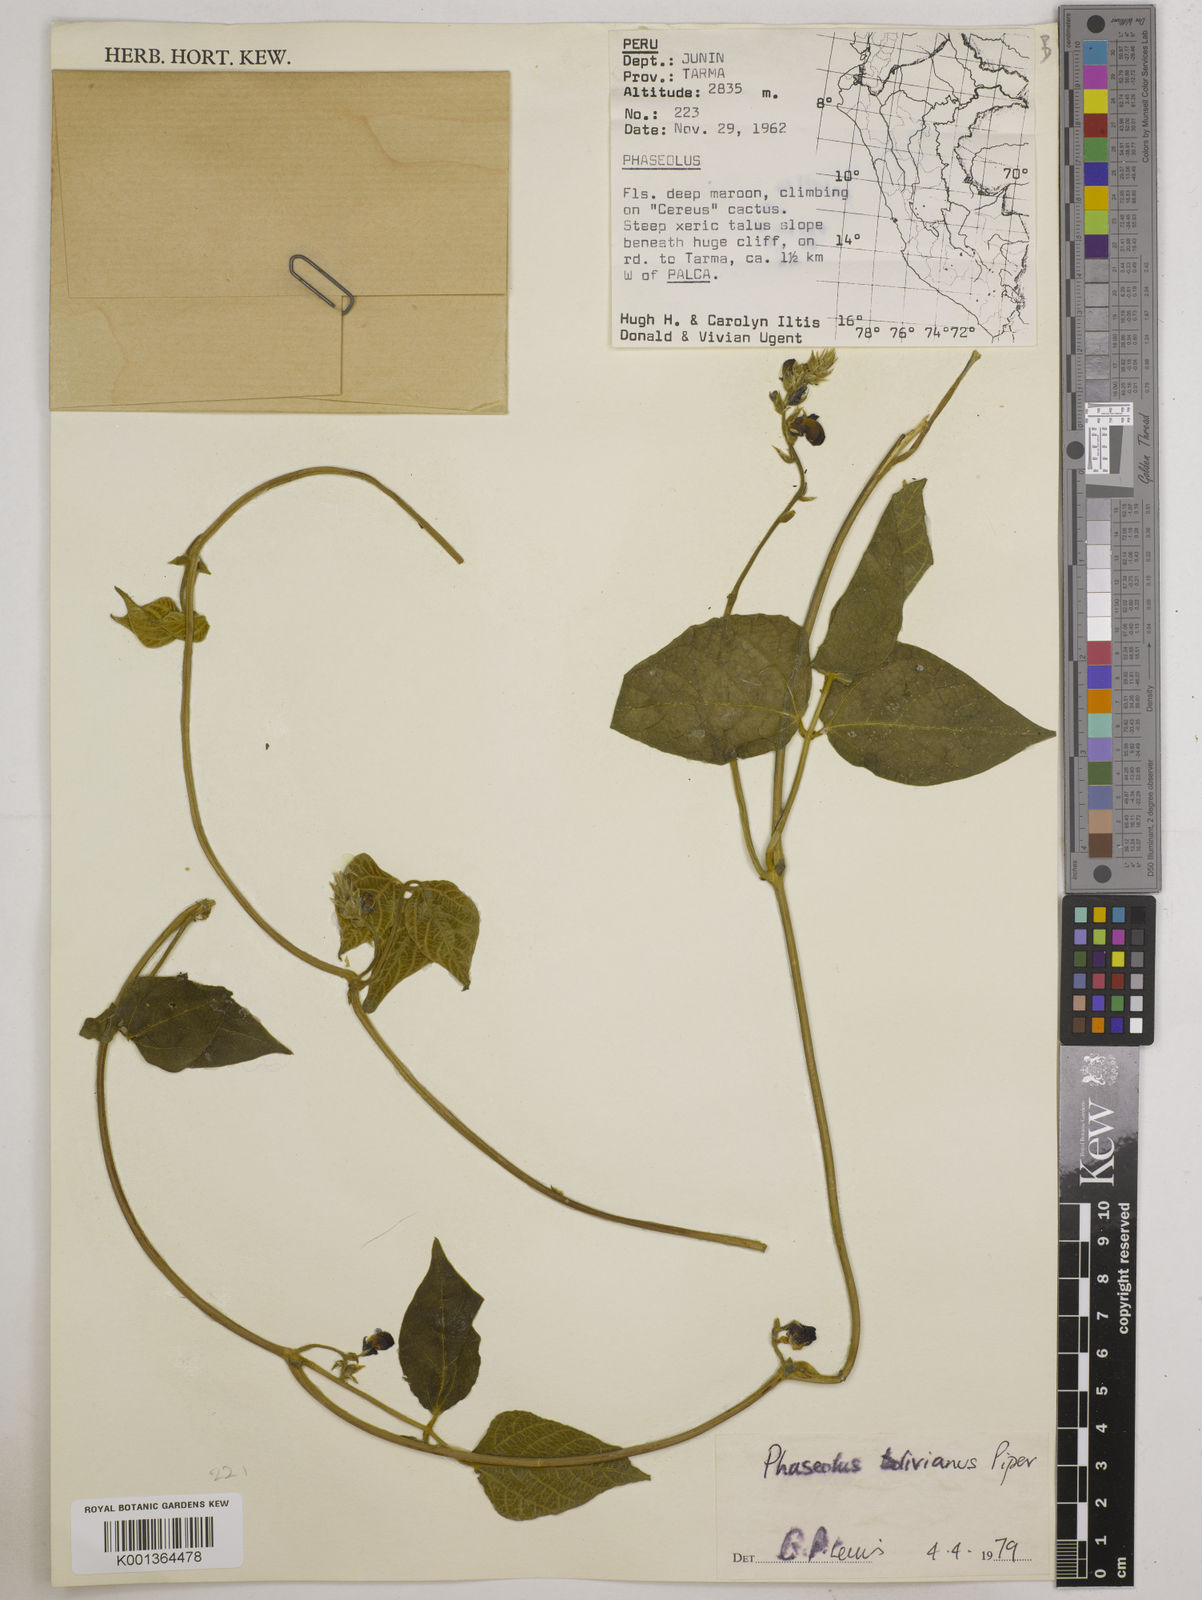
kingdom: Plantae
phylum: Tracheophyta
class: Magnoliopsida
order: Fabales
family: Fabaceae
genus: Phaseolus
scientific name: Phaseolus augusti
